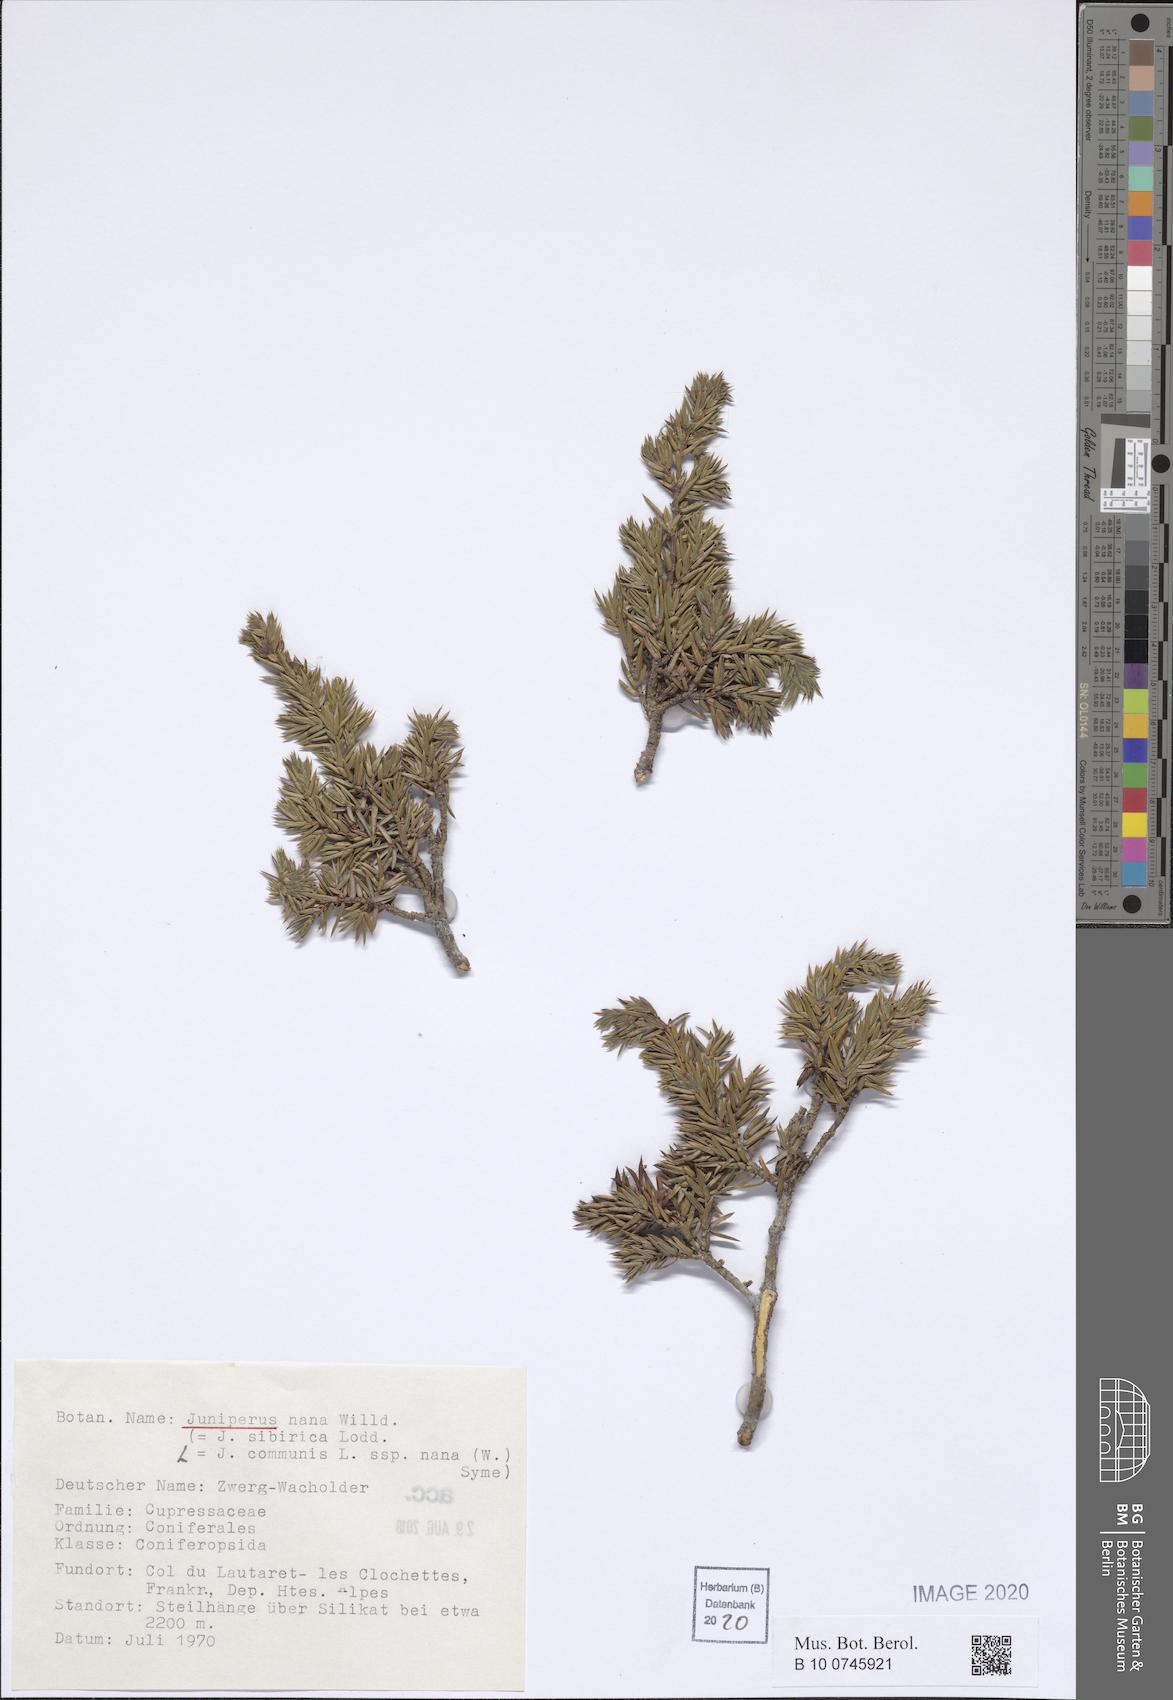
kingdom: Plantae
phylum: Tracheophyta
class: Pinopsida
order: Pinales
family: Cupressaceae
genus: Juniperus
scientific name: Juniperus communis
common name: Common juniper
